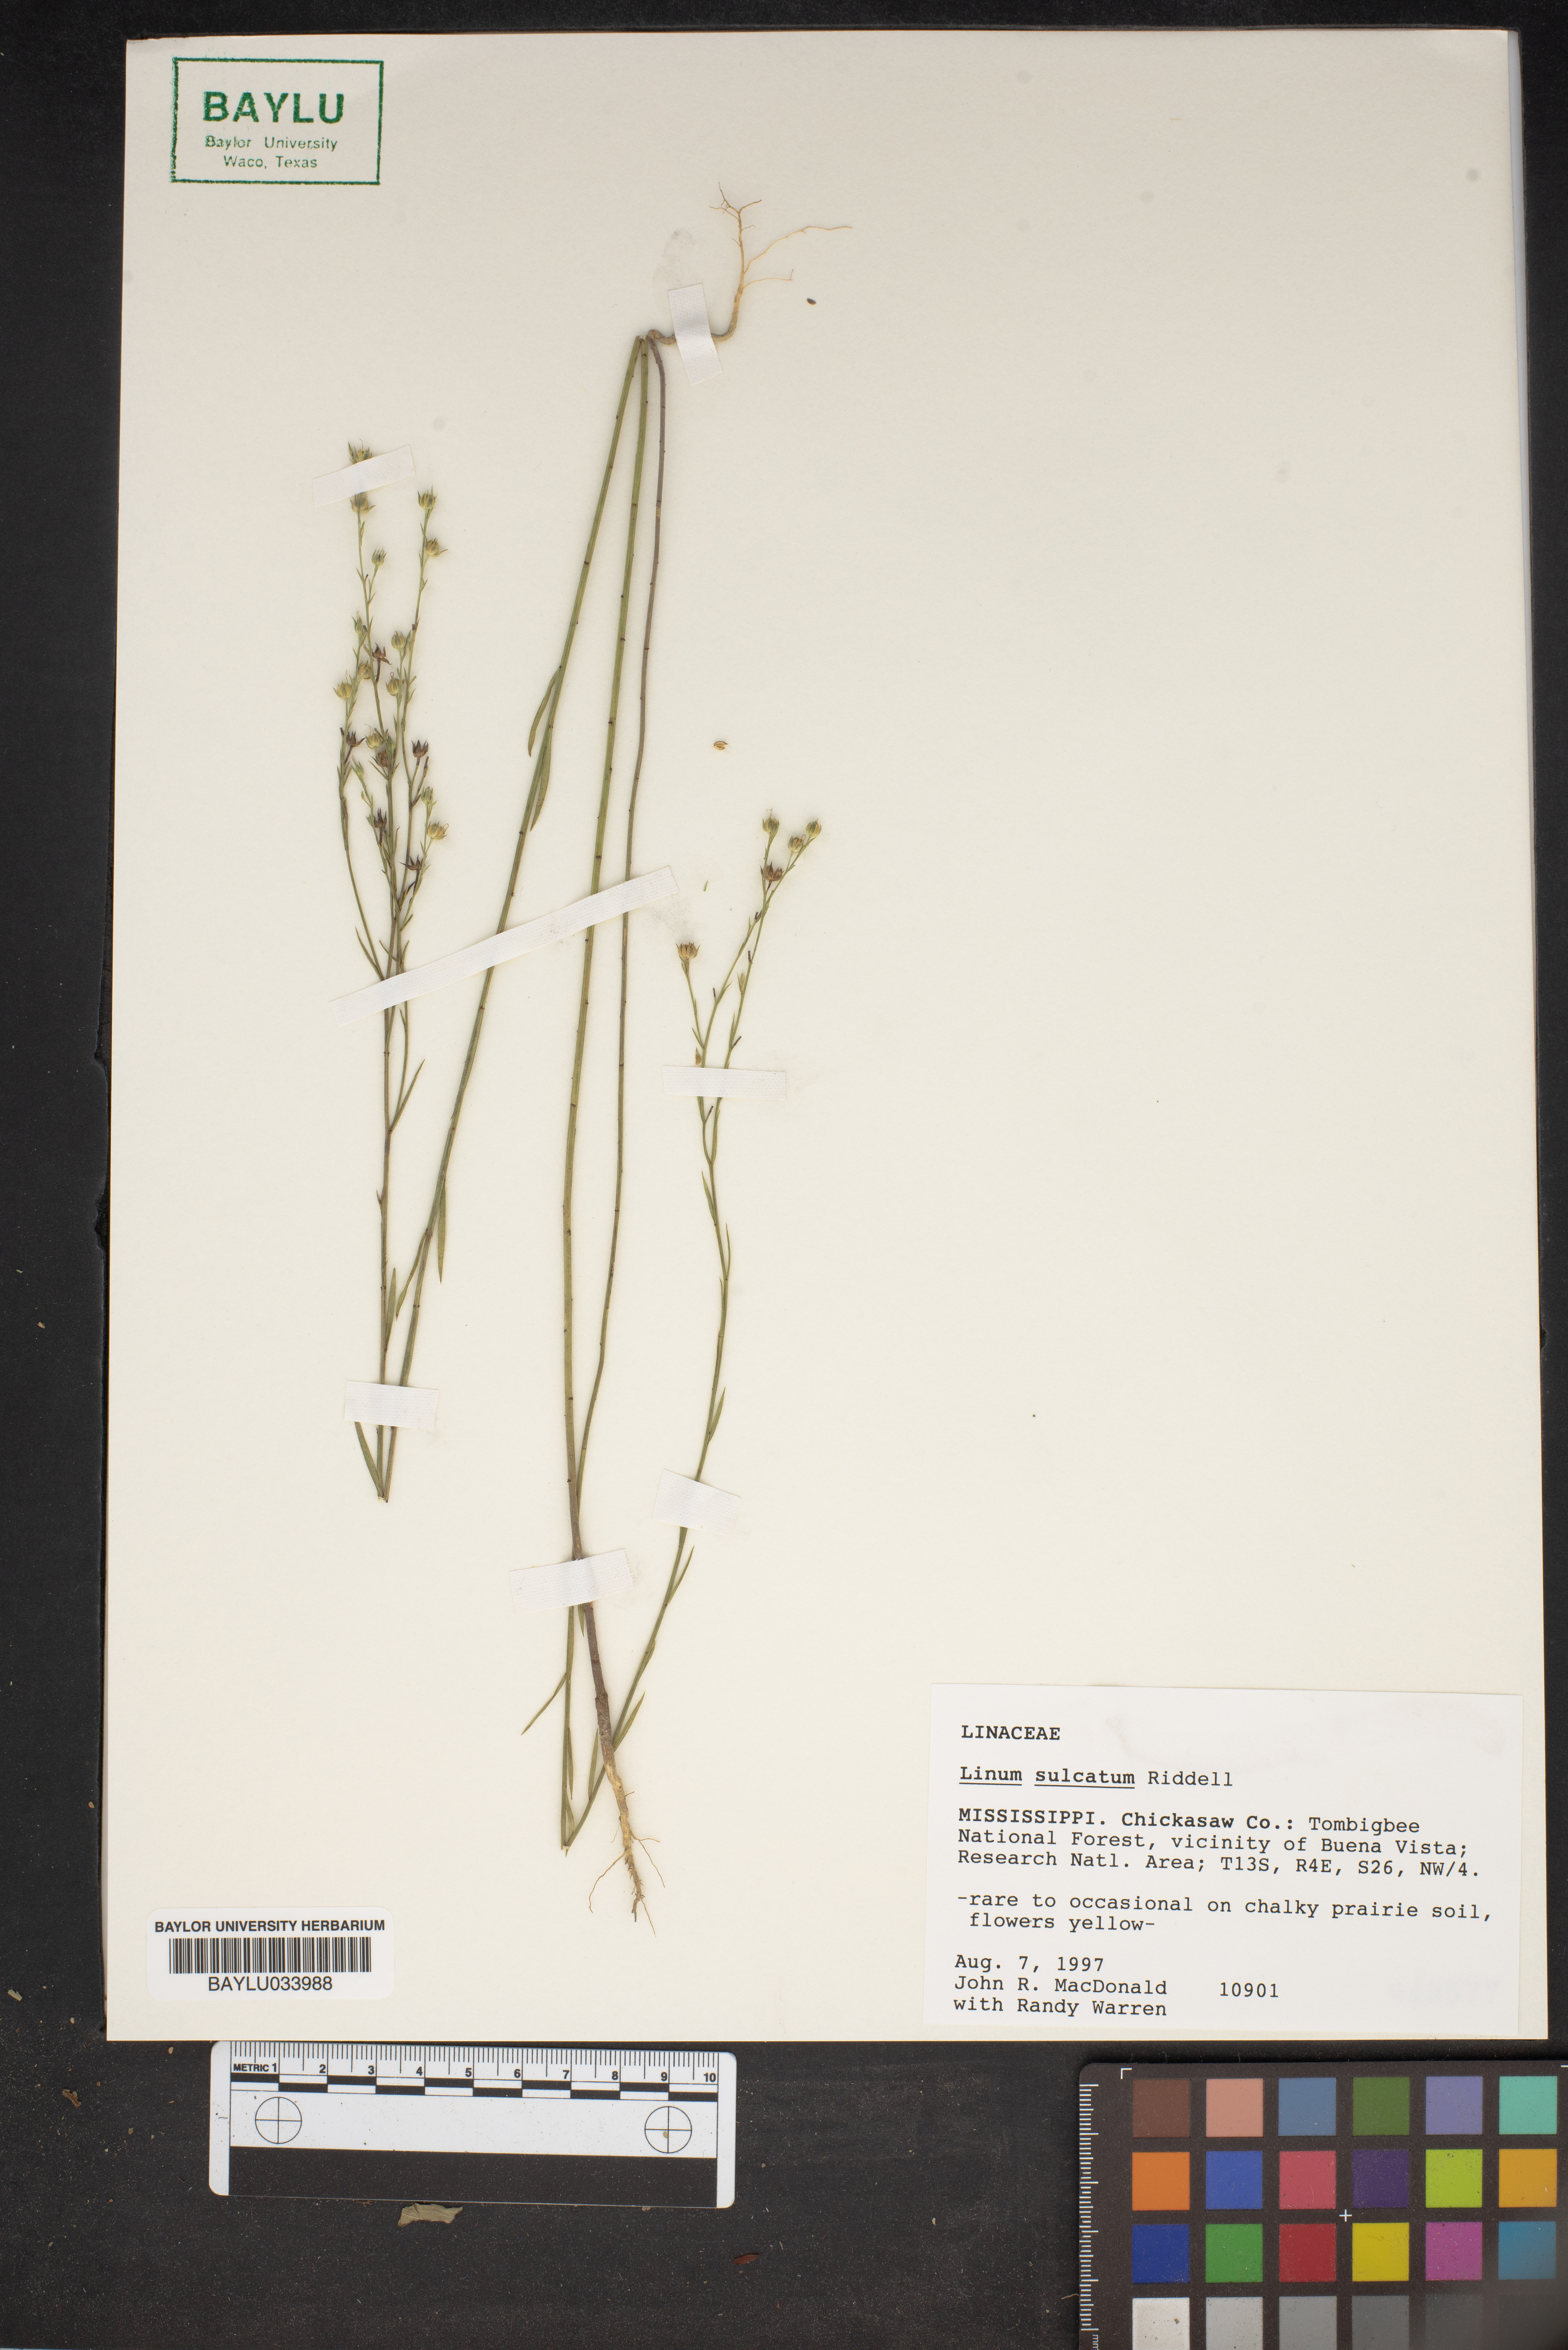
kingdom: Plantae
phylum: Tracheophyta
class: Magnoliopsida
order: Malpighiales
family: Linaceae
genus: Linum
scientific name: Linum sulcatum
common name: Grooved flax
